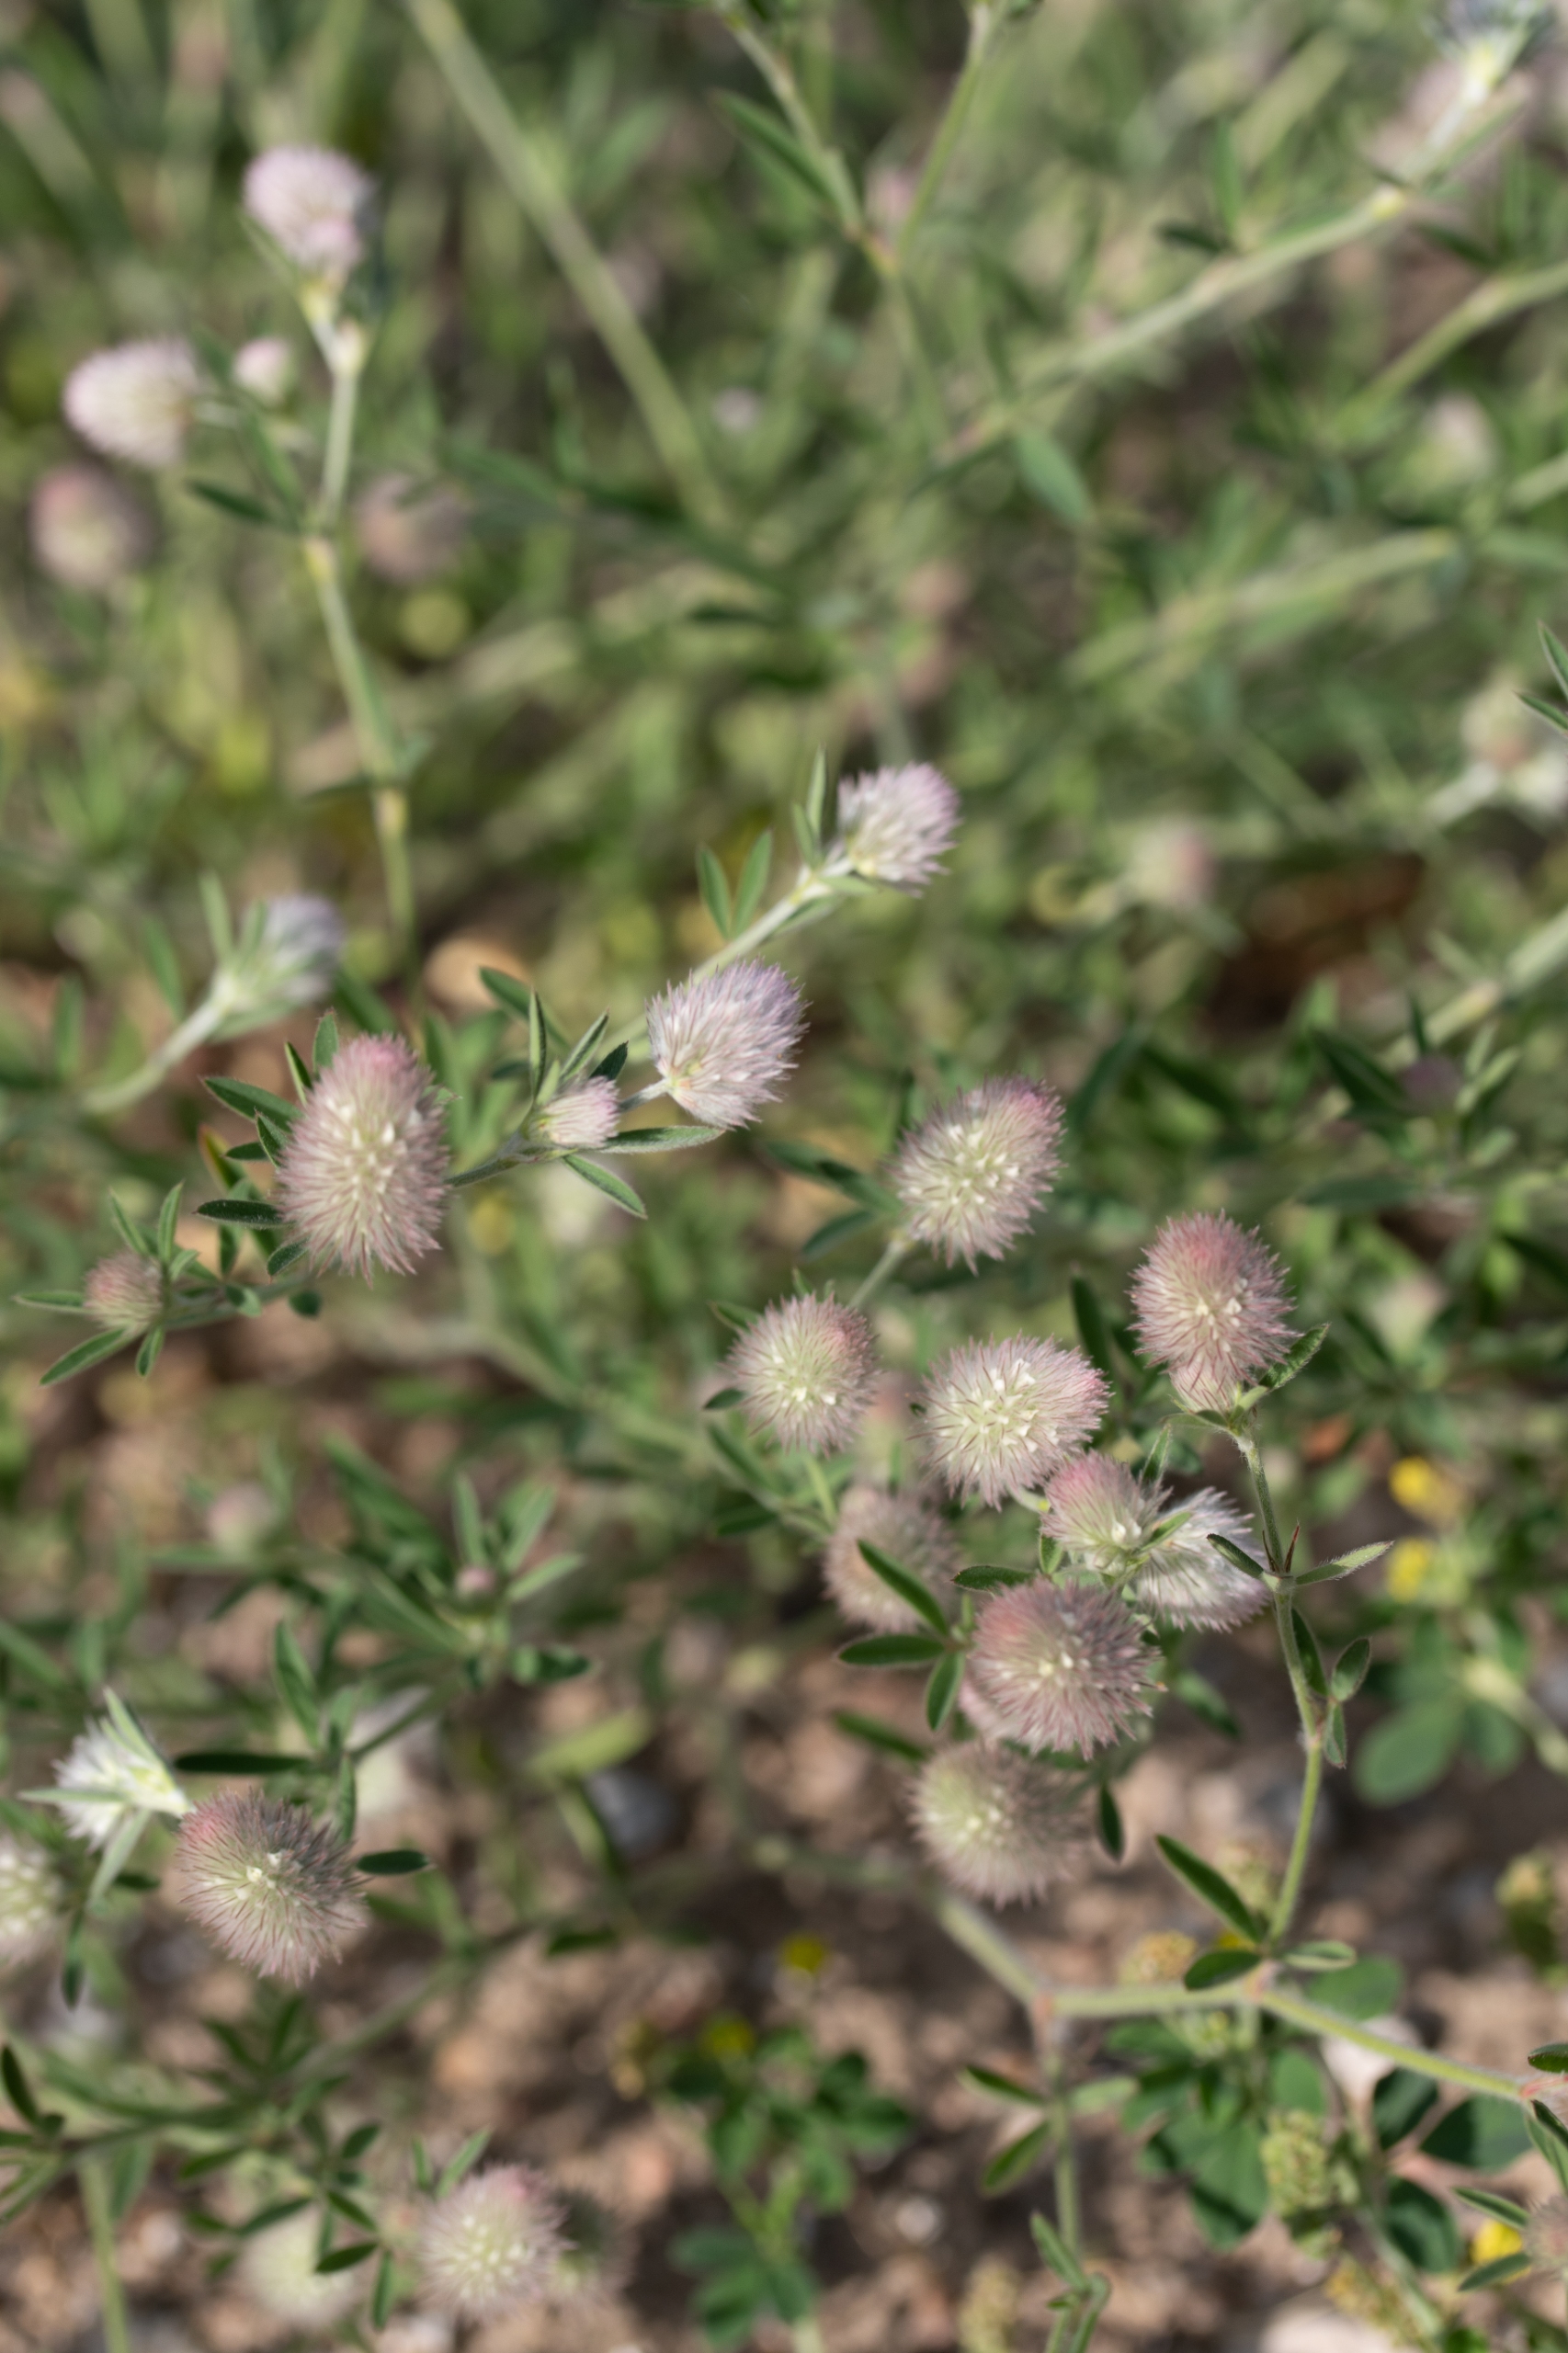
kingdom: Plantae
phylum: Tracheophyta
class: Magnoliopsida
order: Fabales
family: Fabaceae
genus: Trifolium
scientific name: Trifolium arvense
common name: Hare-kløver
